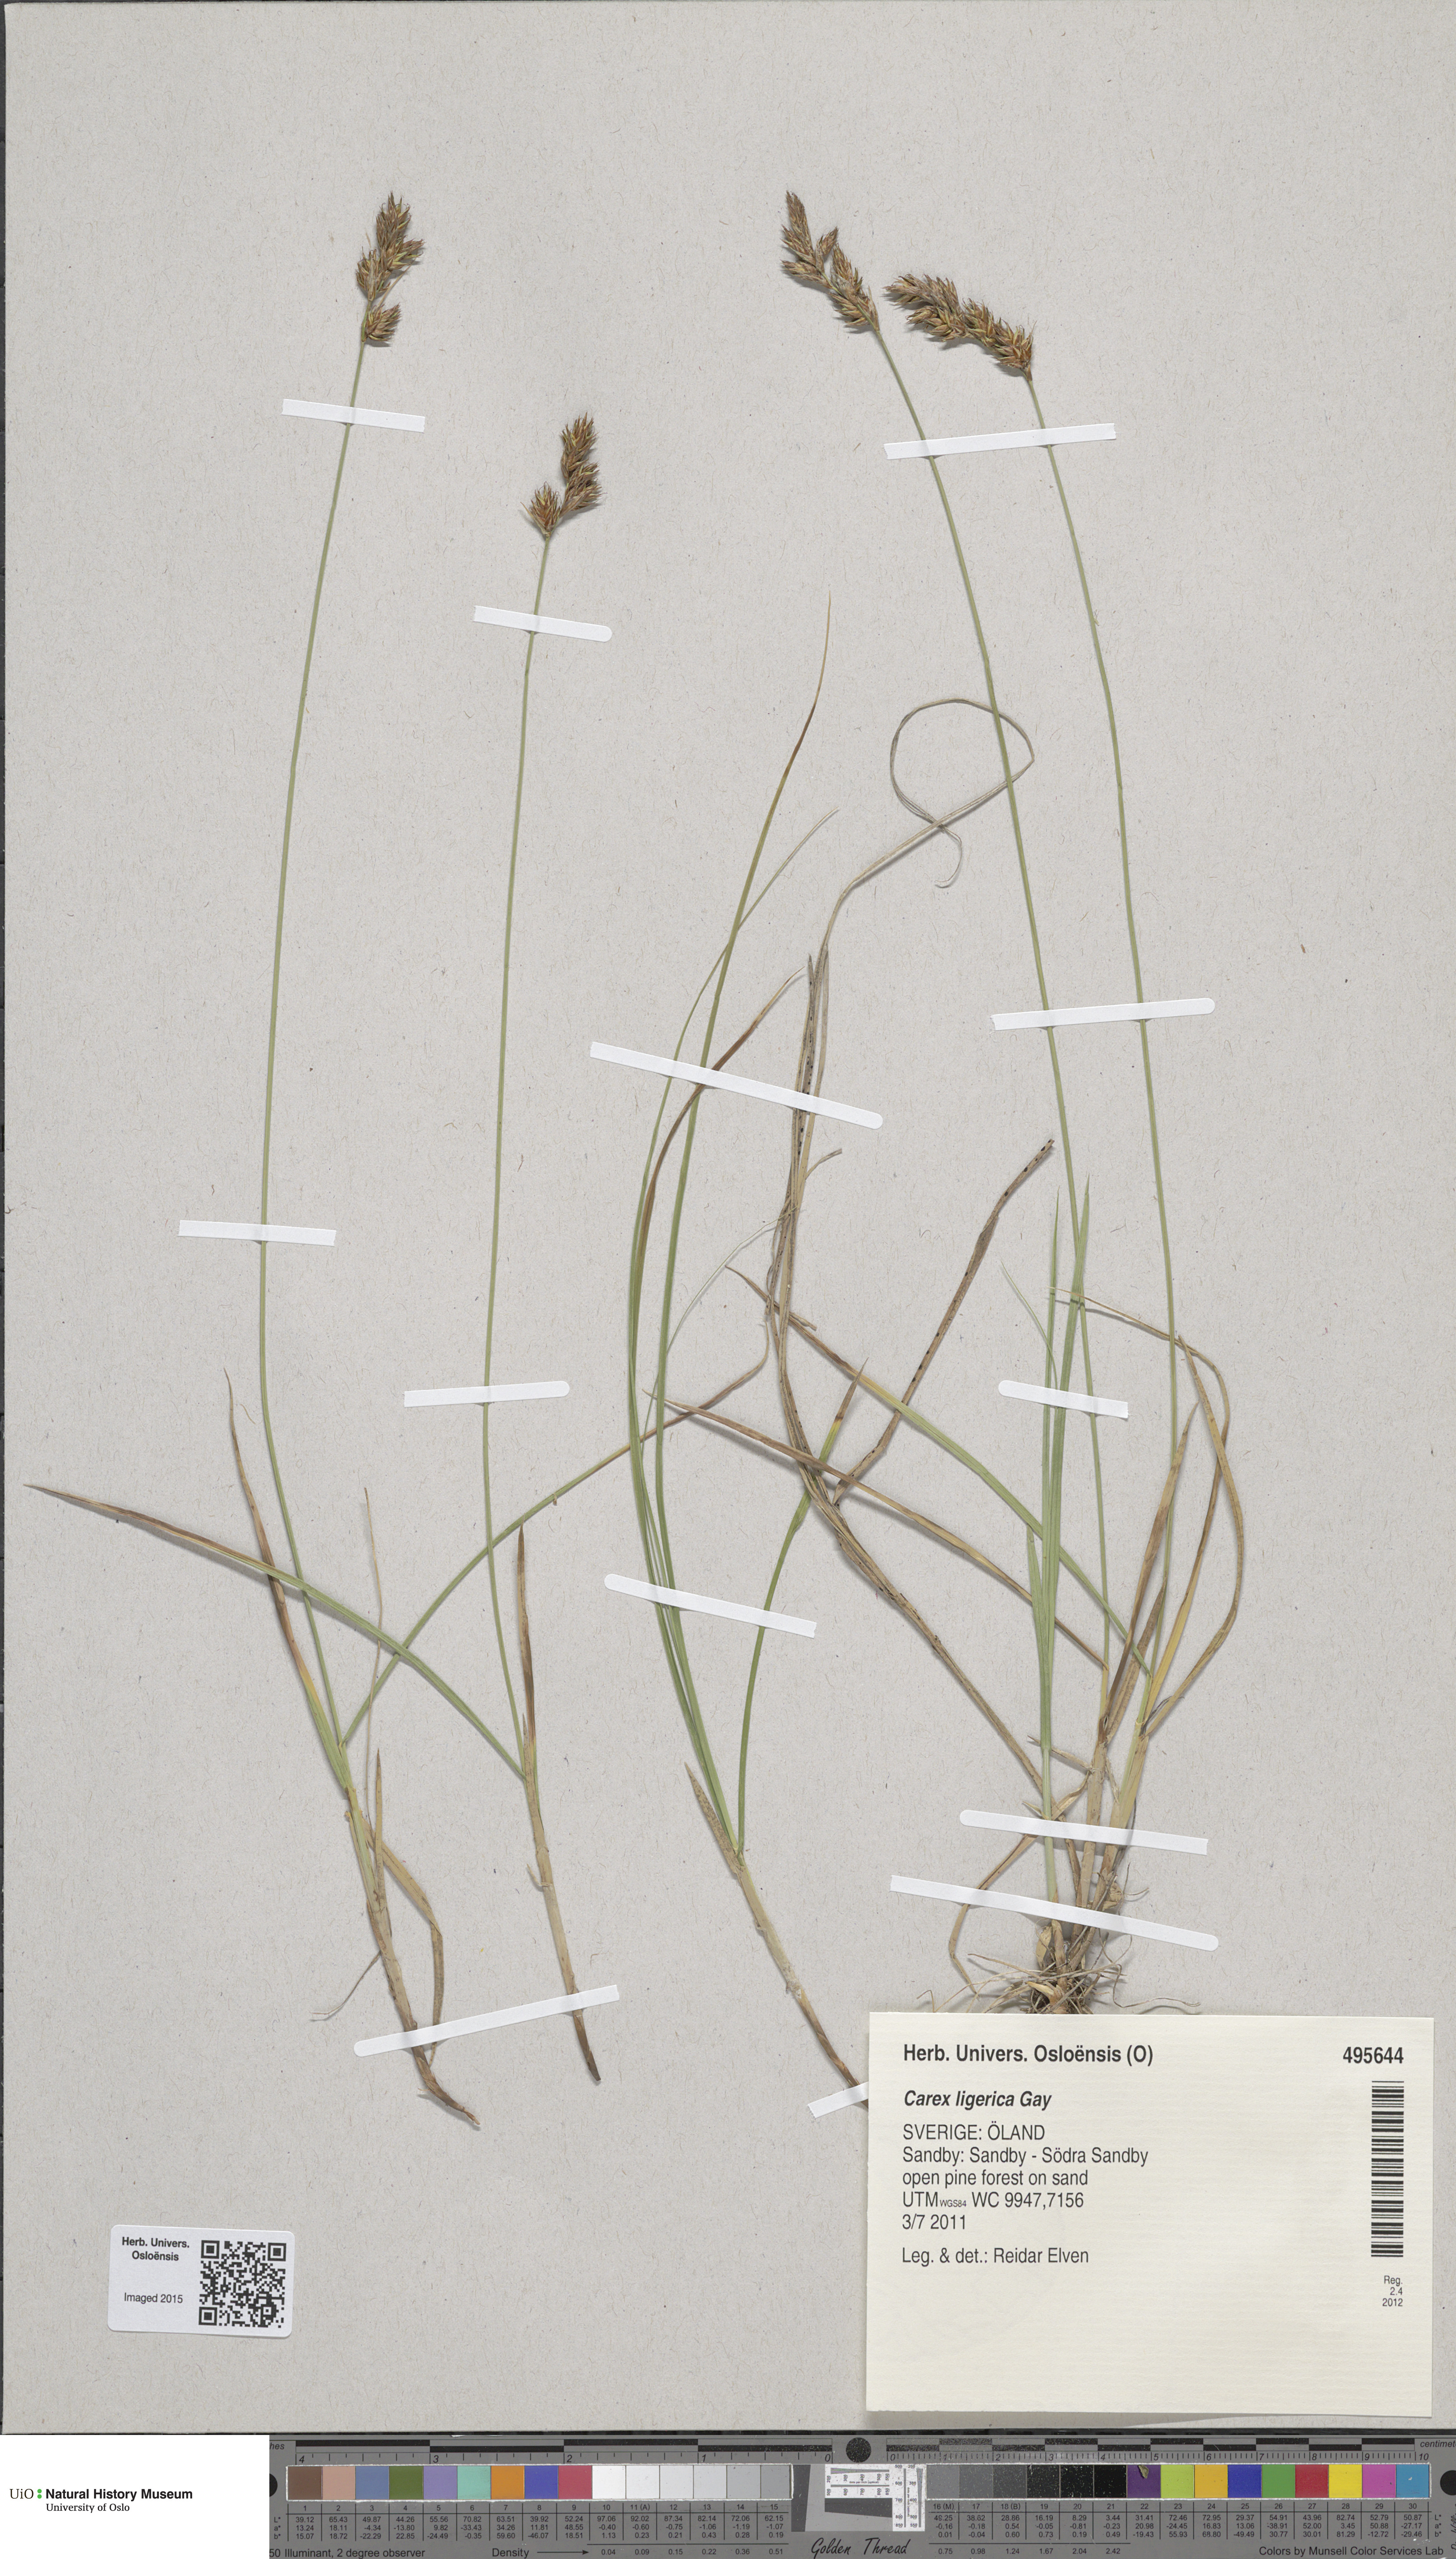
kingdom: Plantae
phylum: Tracheophyta
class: Liliopsida
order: Poales
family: Cyperaceae
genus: Carex
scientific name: Carex colchica
